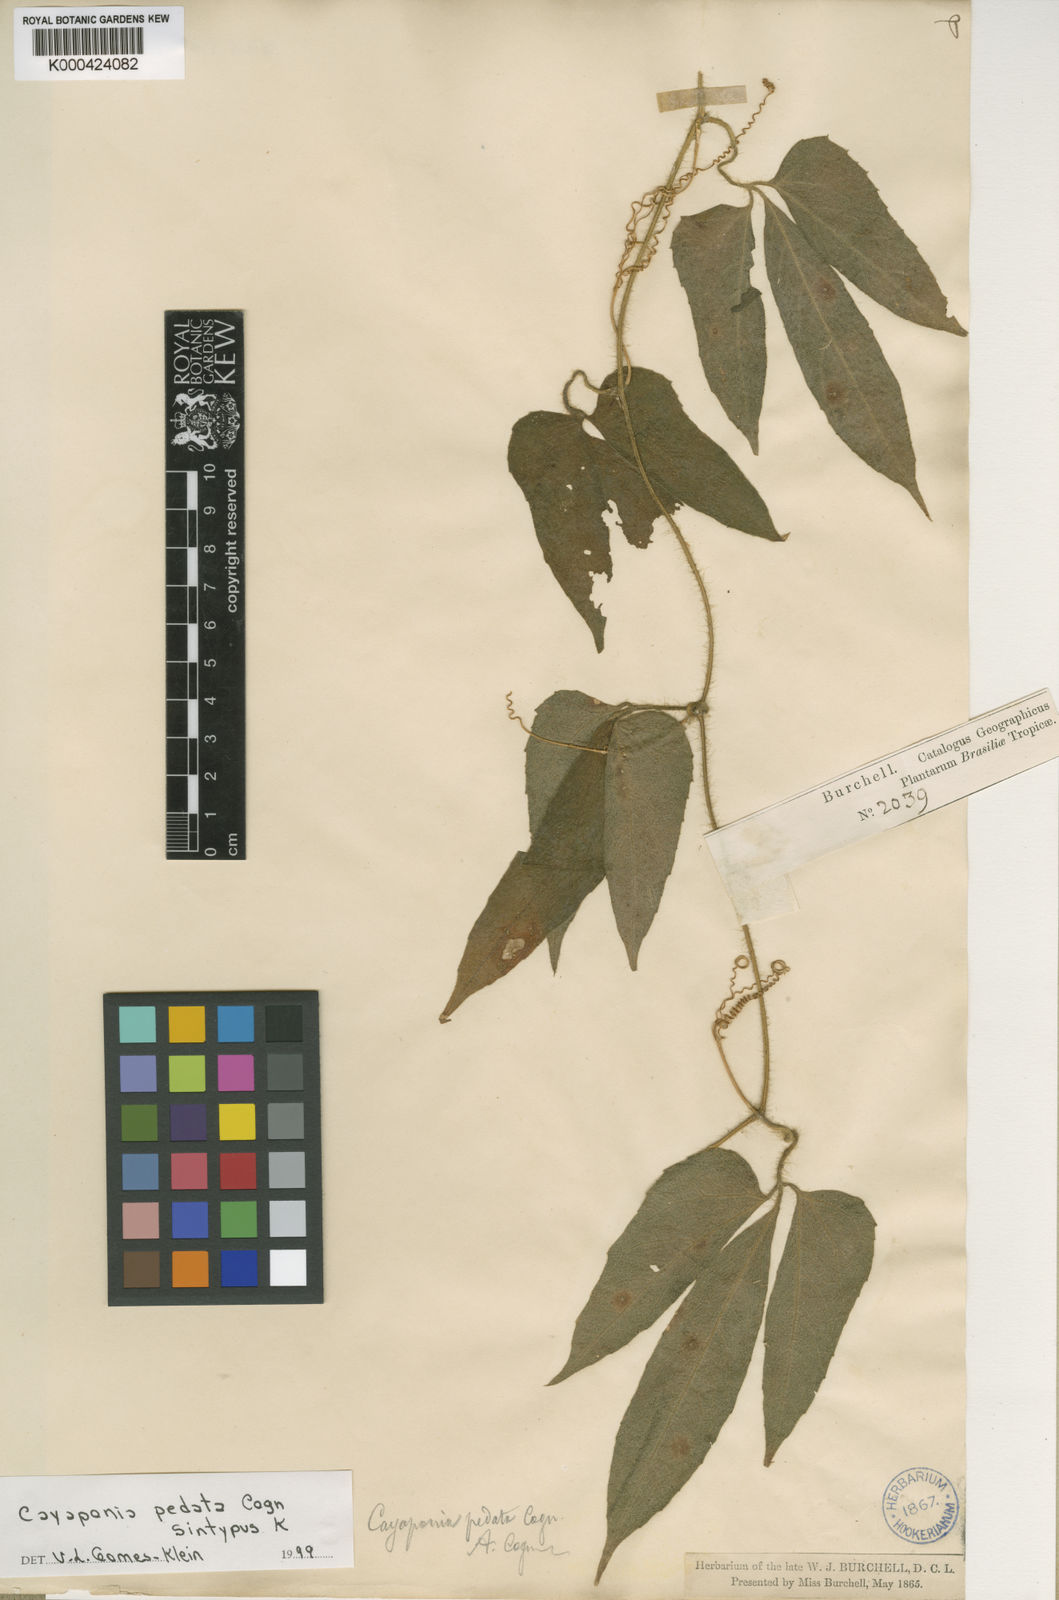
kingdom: Plantae
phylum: Tracheophyta
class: Magnoliopsida
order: Cucurbitales
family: Cucurbitaceae
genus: Cayaponia
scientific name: Cayaponia pedata
